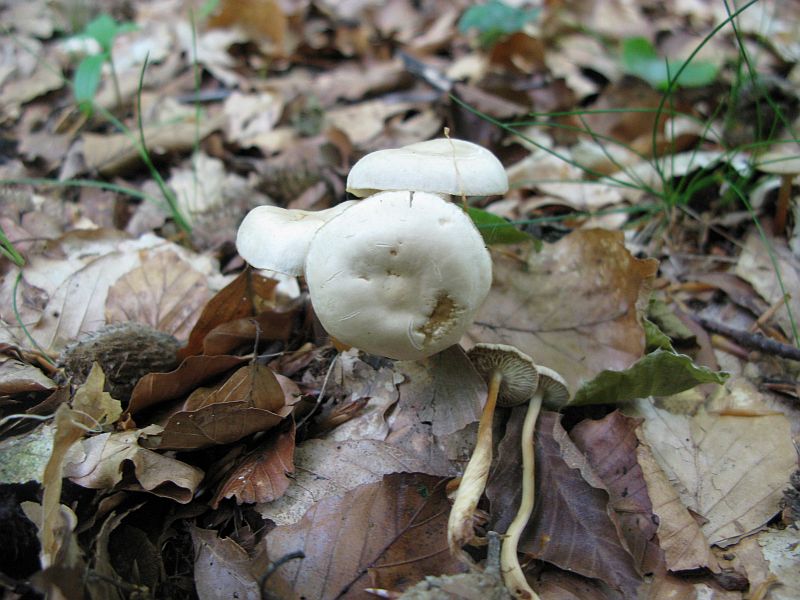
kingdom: Fungi
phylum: Basidiomycota
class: Agaricomycetes
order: Agaricales
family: Omphalotaceae
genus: Gymnopus
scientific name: Gymnopus aquosus
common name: bleg fladhat
